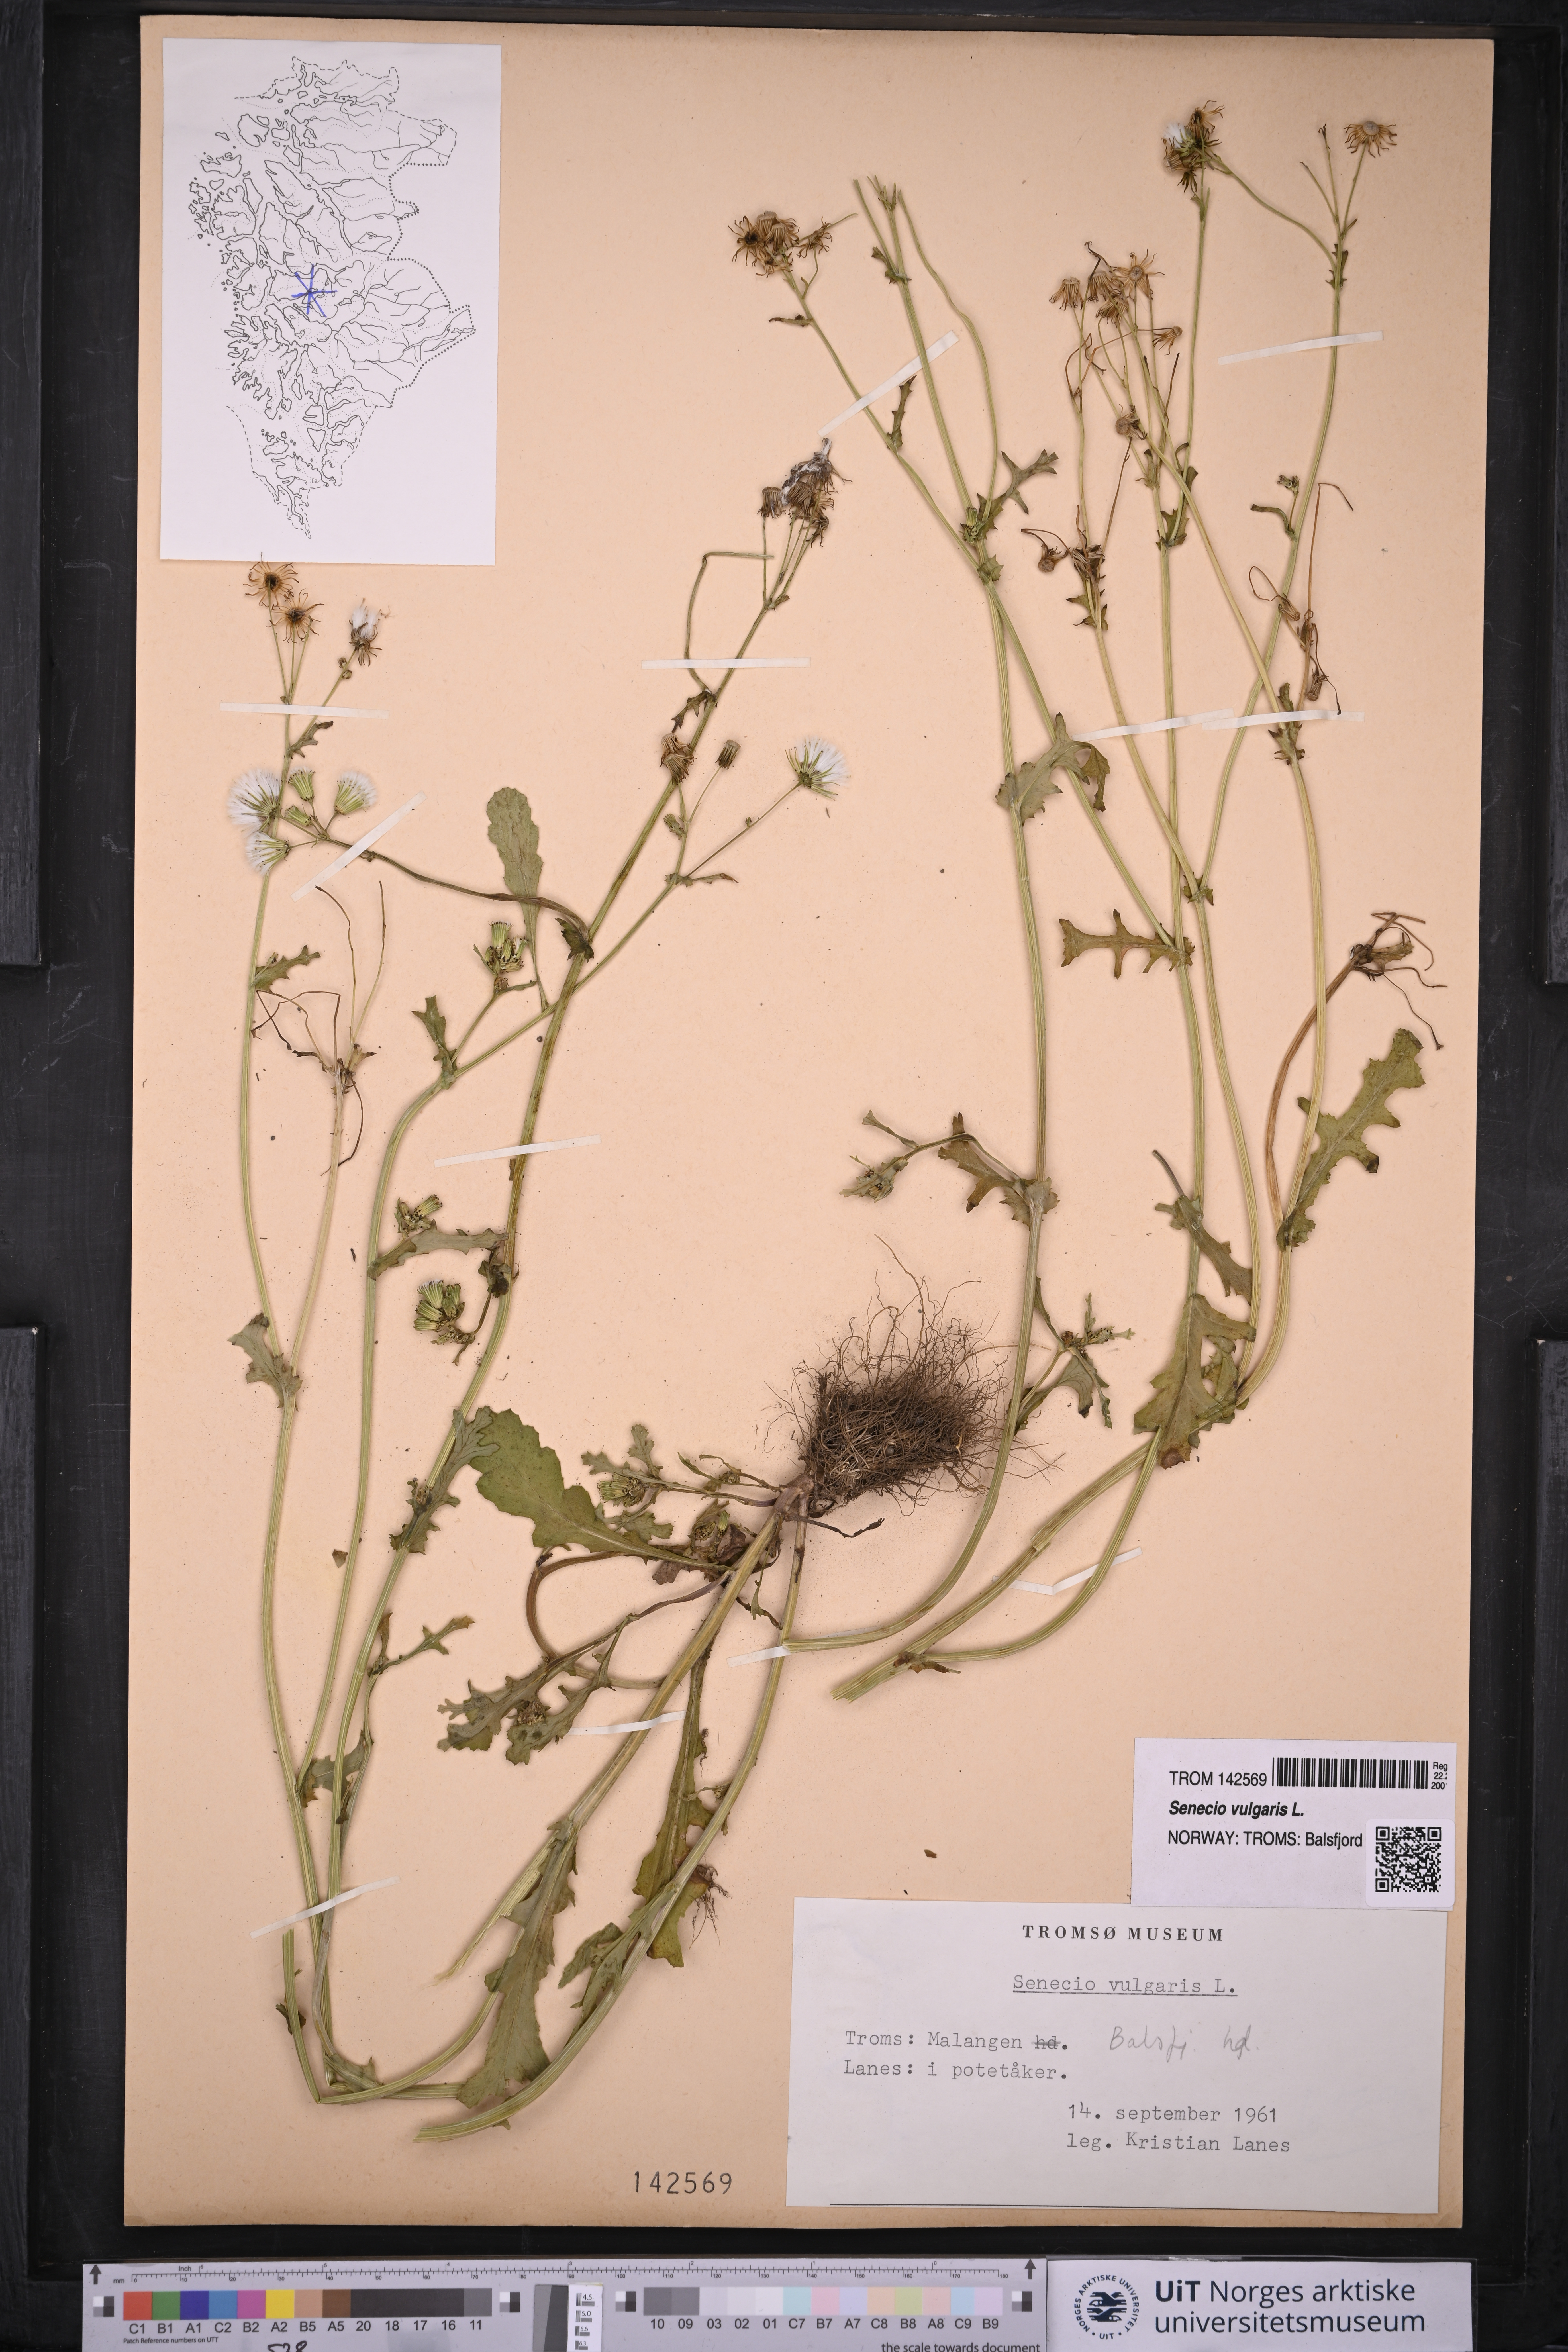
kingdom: Plantae
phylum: Tracheophyta
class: Magnoliopsida
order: Asterales
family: Asteraceae
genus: Senecio
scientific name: Senecio vulgaris
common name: Old-man-in-the-spring
